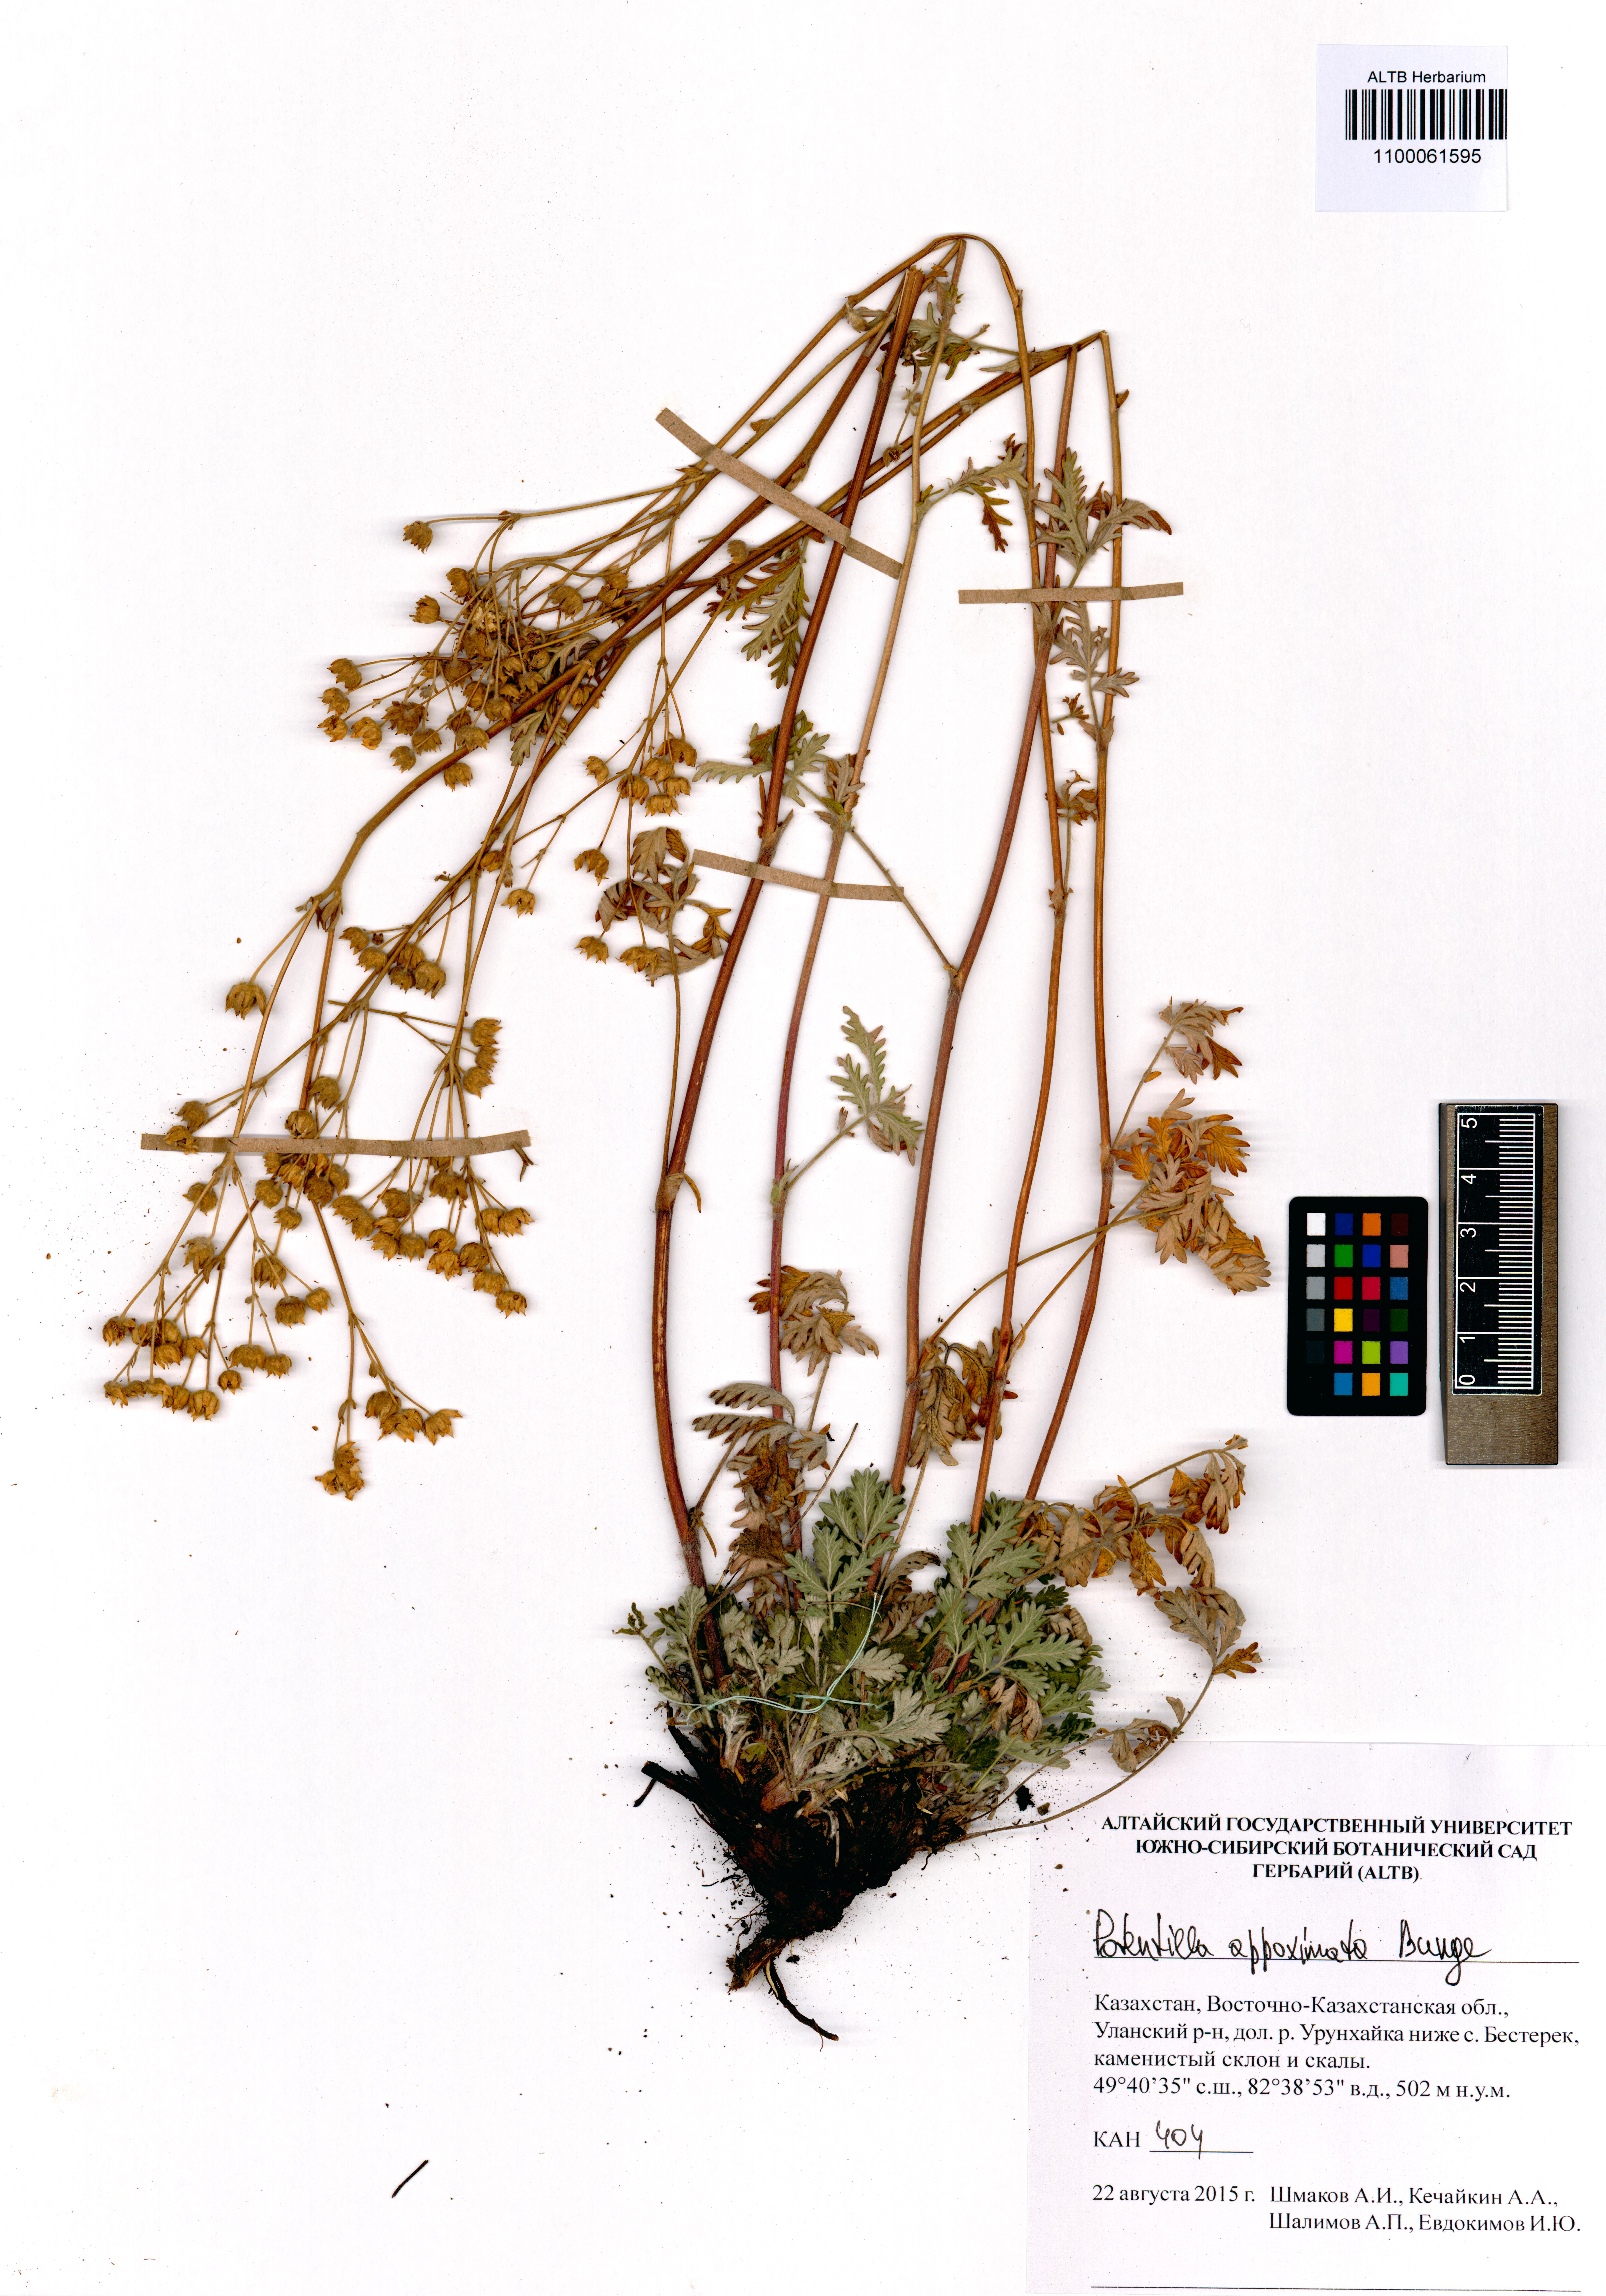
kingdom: Plantae
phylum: Tracheophyta
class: Magnoliopsida
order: Rosales
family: Rosaceae
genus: Potentilla
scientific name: Potentilla conferta
